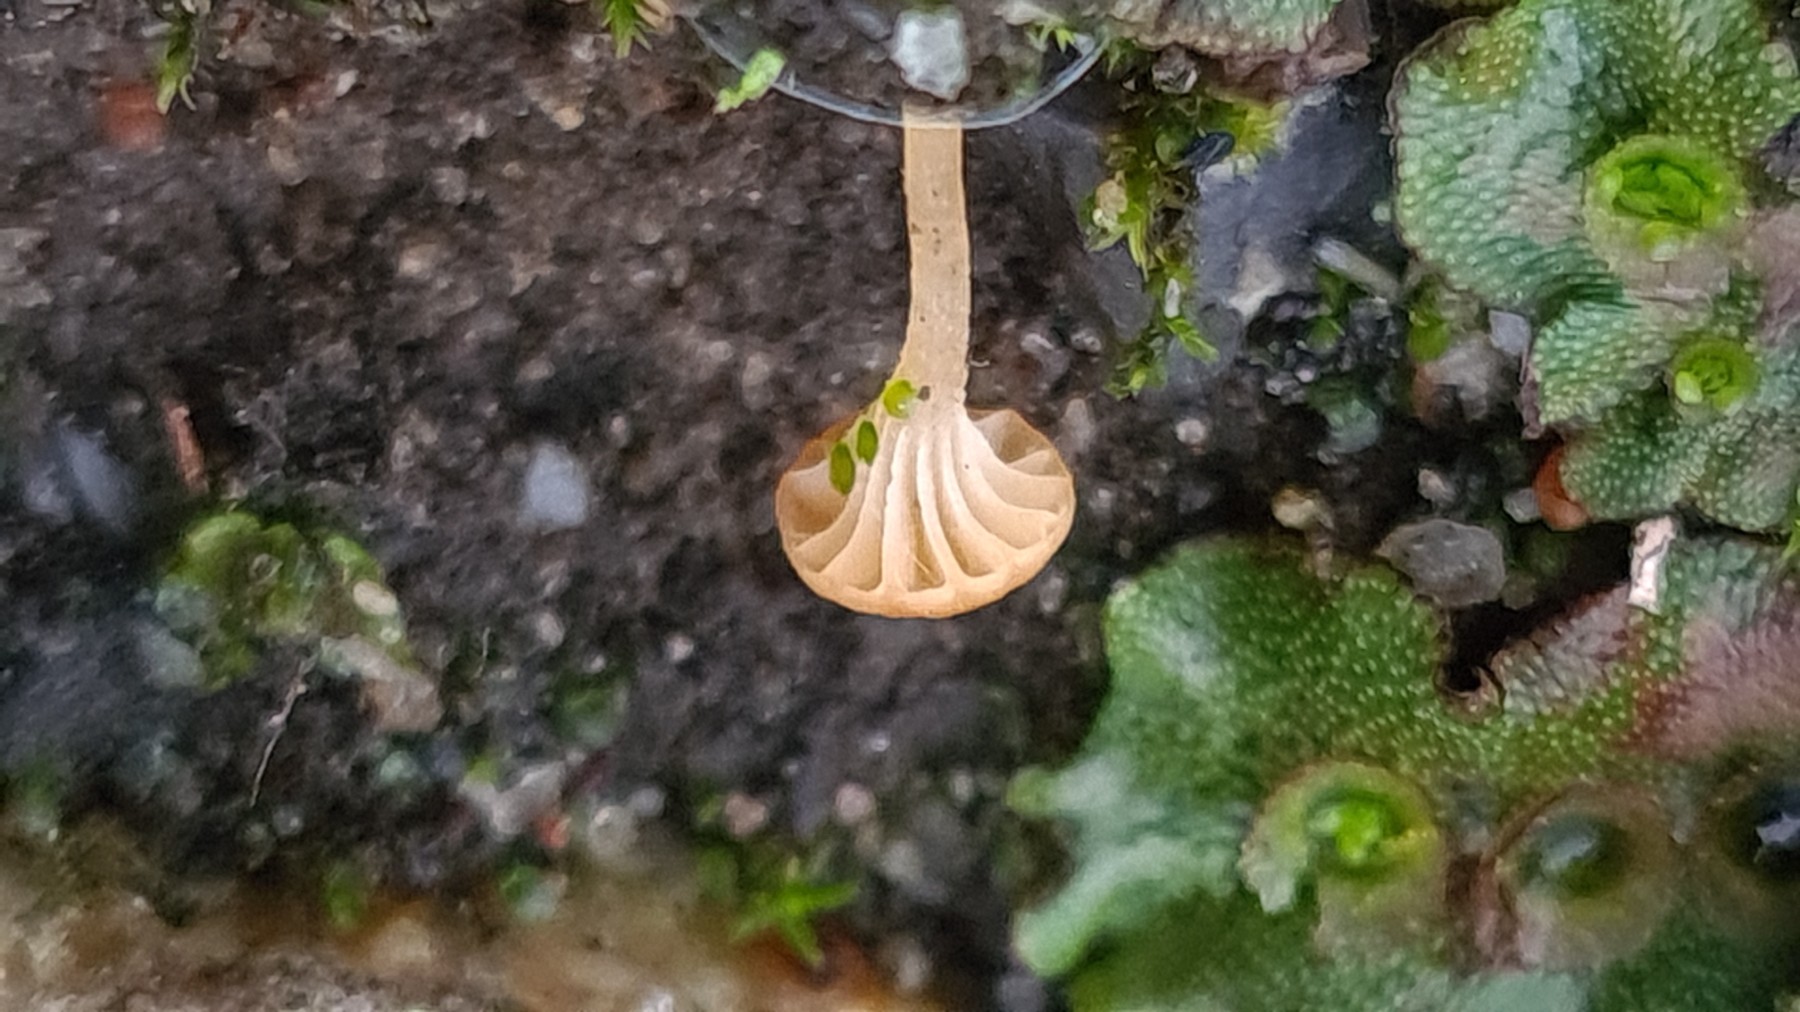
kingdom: Fungi
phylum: Basidiomycota
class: Agaricomycetes
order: Hymenochaetales
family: Rickenellaceae
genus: Loreleia
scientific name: Loreleia marchantiae
